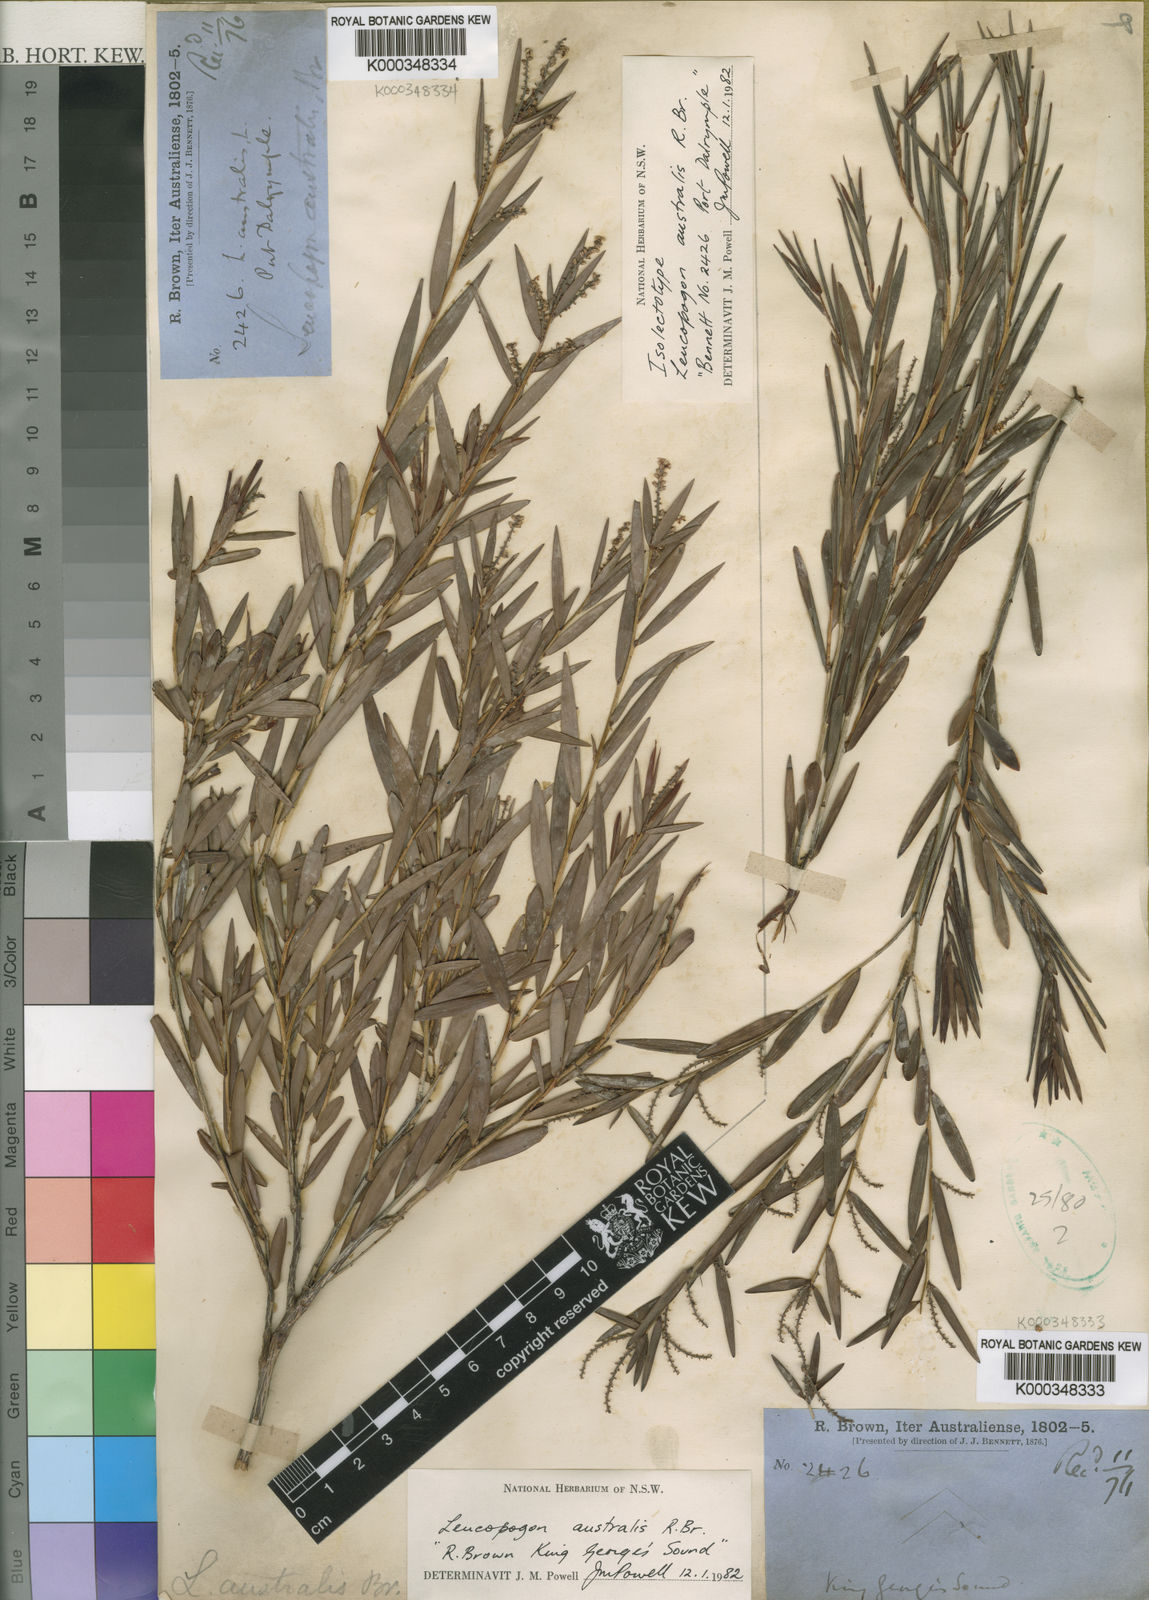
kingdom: Plantae
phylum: Tracheophyta
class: Magnoliopsida
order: Ericales
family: Ericaceae
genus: Leucopogon
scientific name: Leucopogon australis
